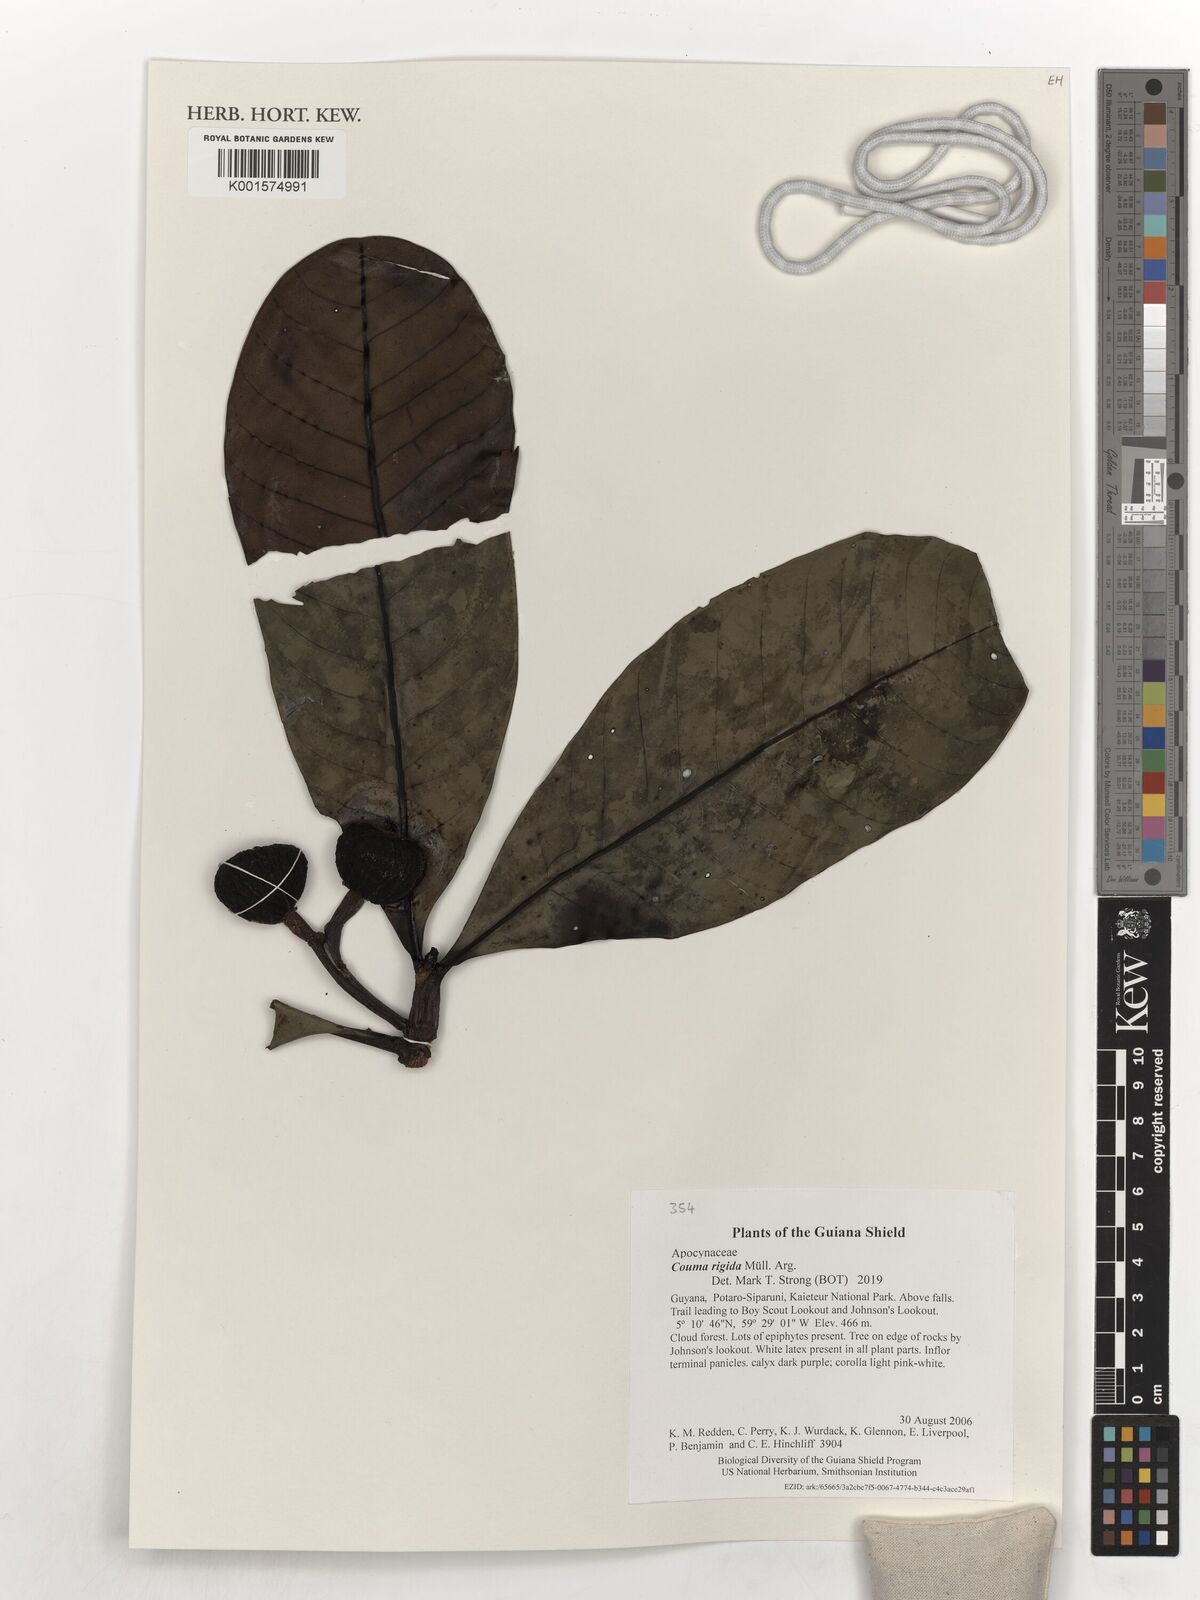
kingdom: Plantae
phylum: Tracheophyta
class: Magnoliopsida
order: Gentianales
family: Apocynaceae
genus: Couma
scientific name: Couma rigida
